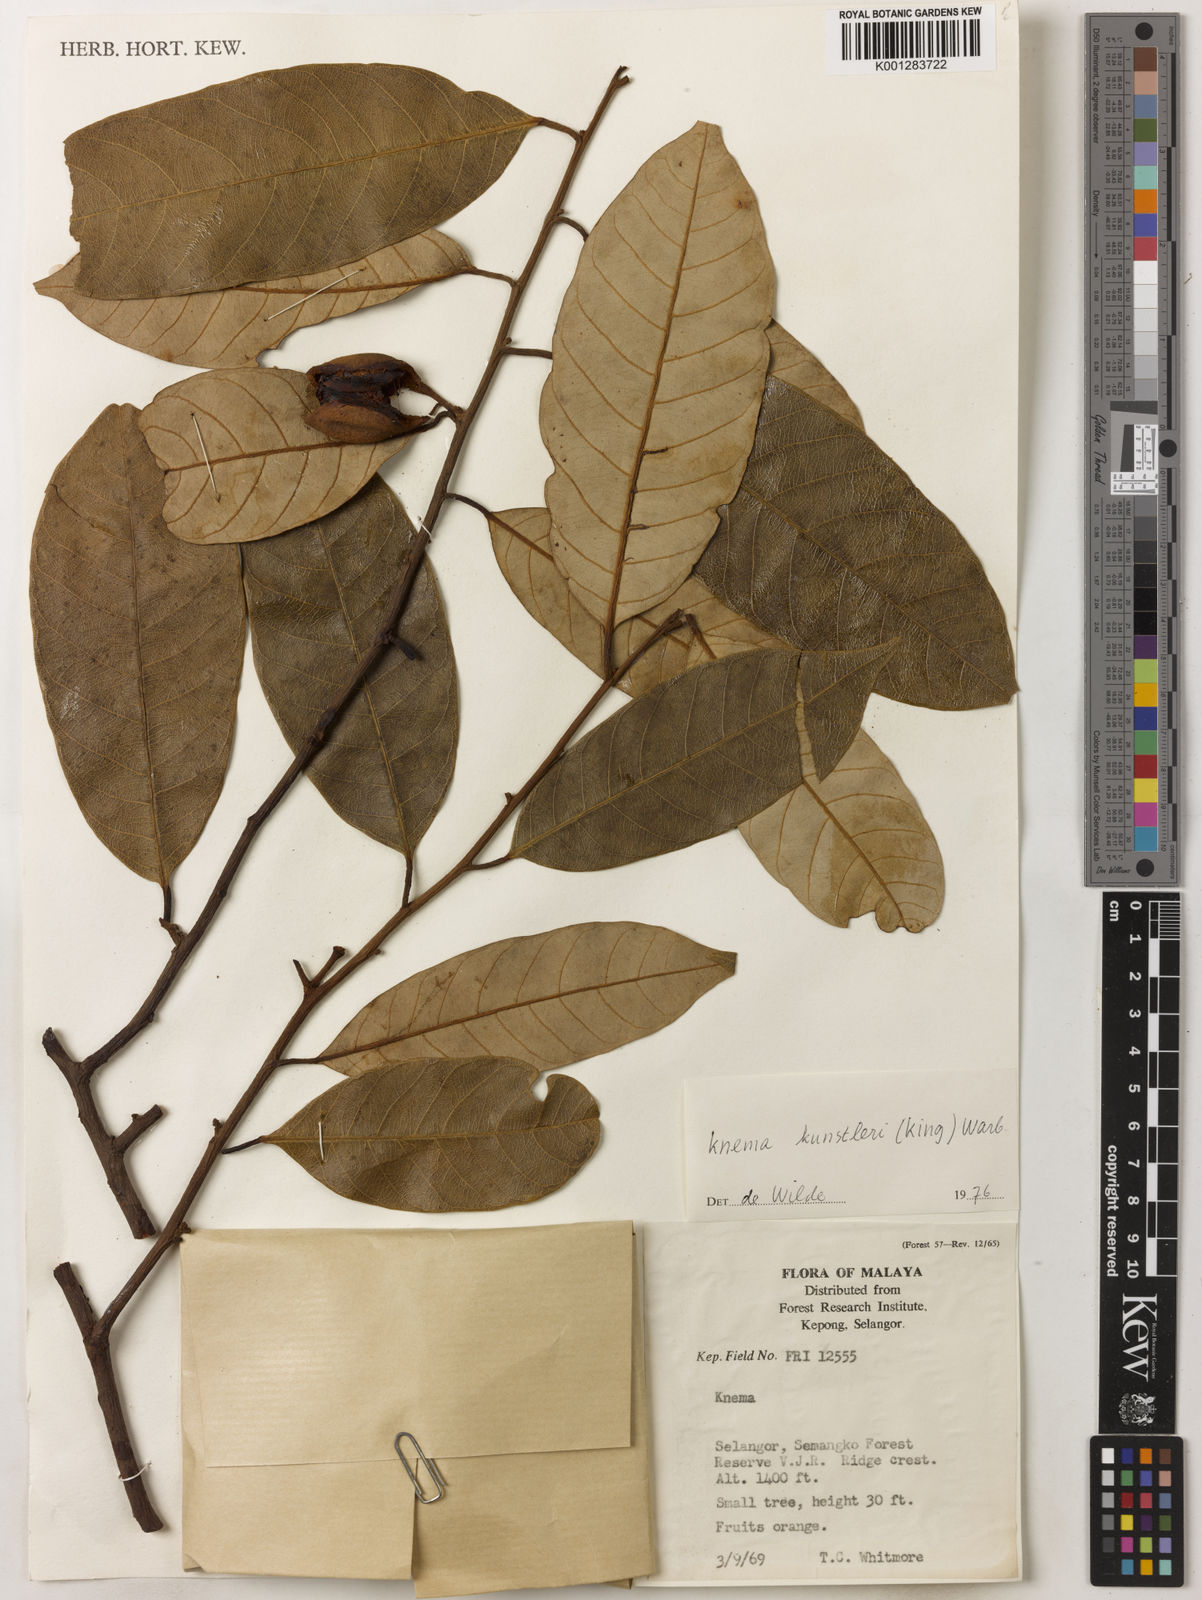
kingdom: Plantae
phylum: Tracheophyta
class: Magnoliopsida
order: Magnoliales
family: Myristicaceae
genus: Knema
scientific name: Knema kunstleri
